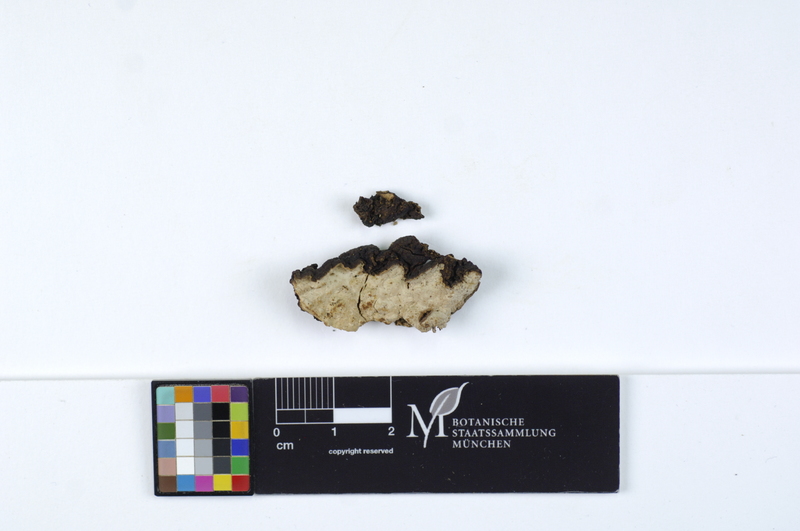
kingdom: Fungi
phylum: Basidiomycota
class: Agaricomycetes
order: Agaricales
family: Cystostereaceae
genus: Cystostereum
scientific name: Cystostereum murrayi
